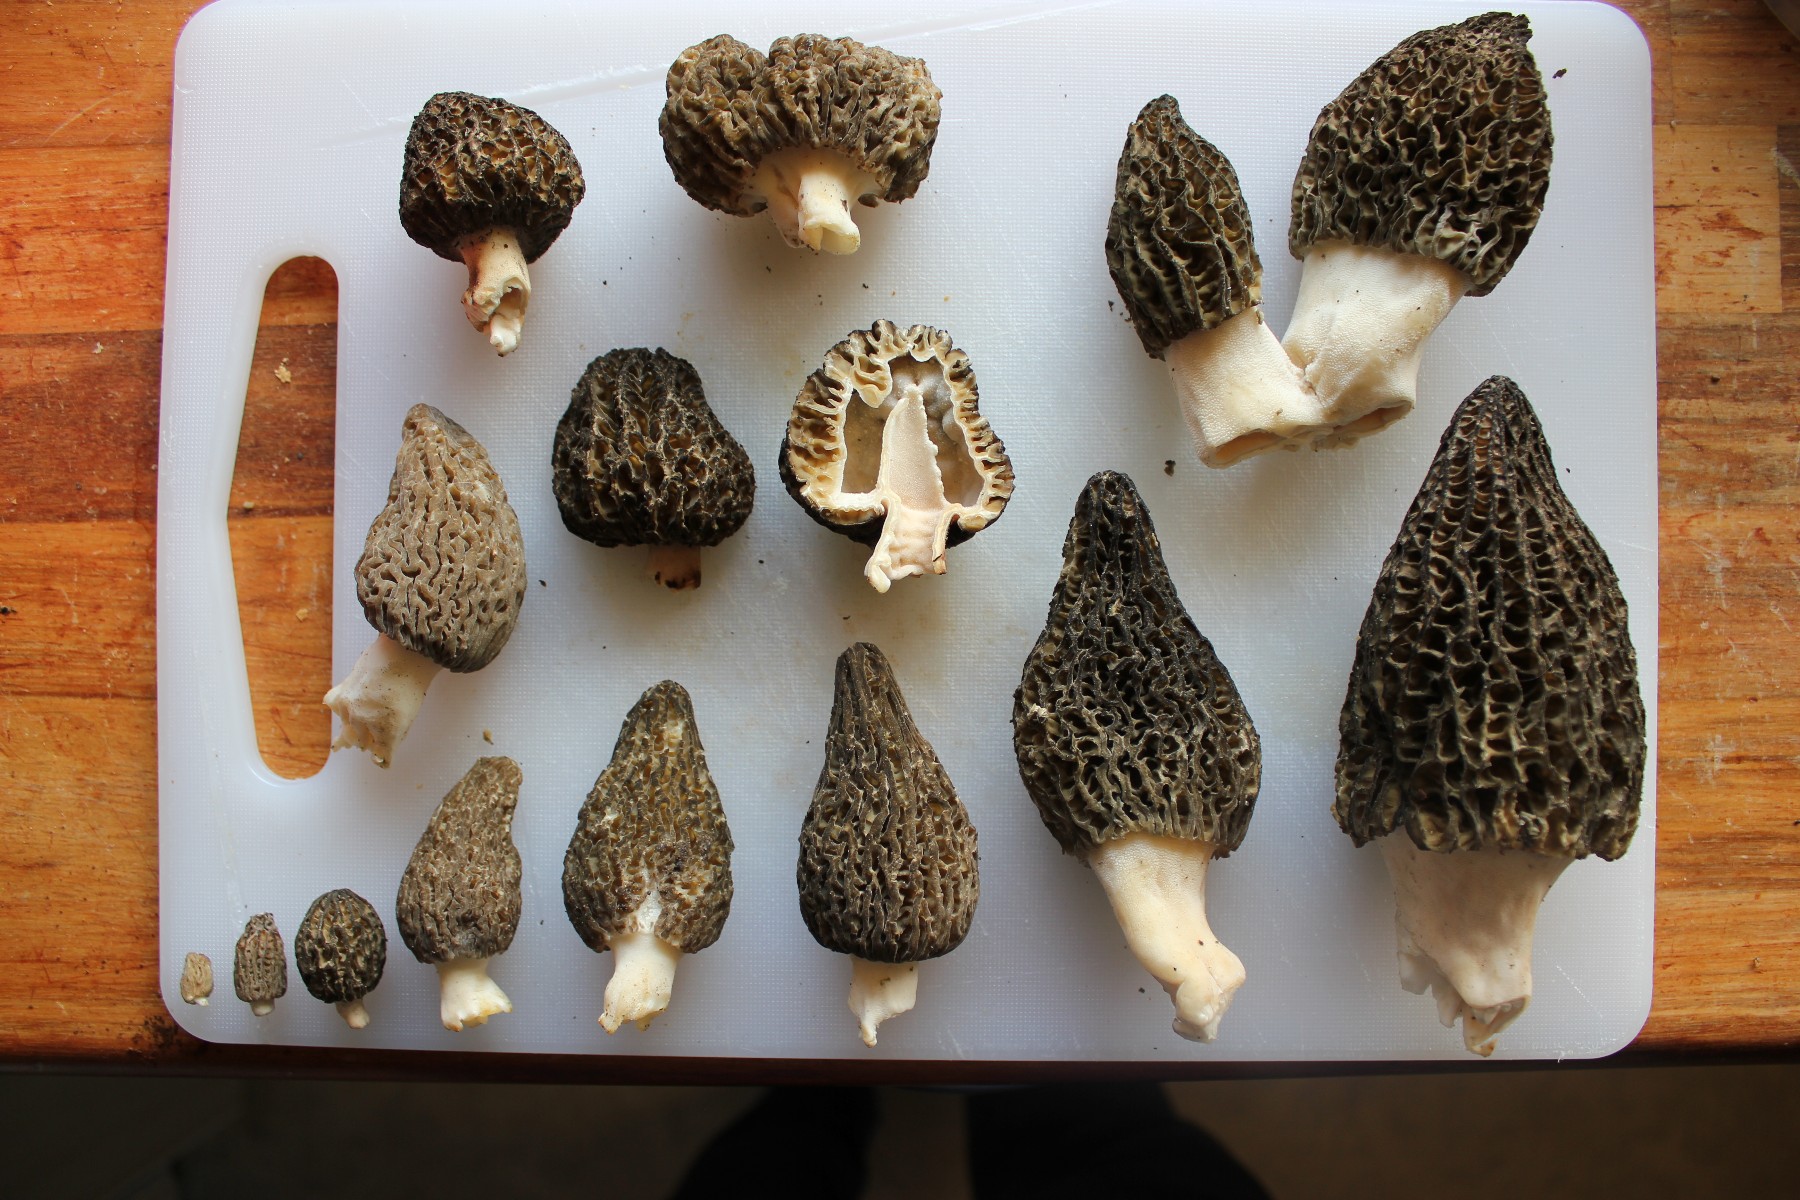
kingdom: Fungi
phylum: Ascomycota
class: Pezizomycetes
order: Pezizales
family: Morchellaceae
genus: Morchella
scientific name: Morchella importuna
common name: Landscaping black morel
